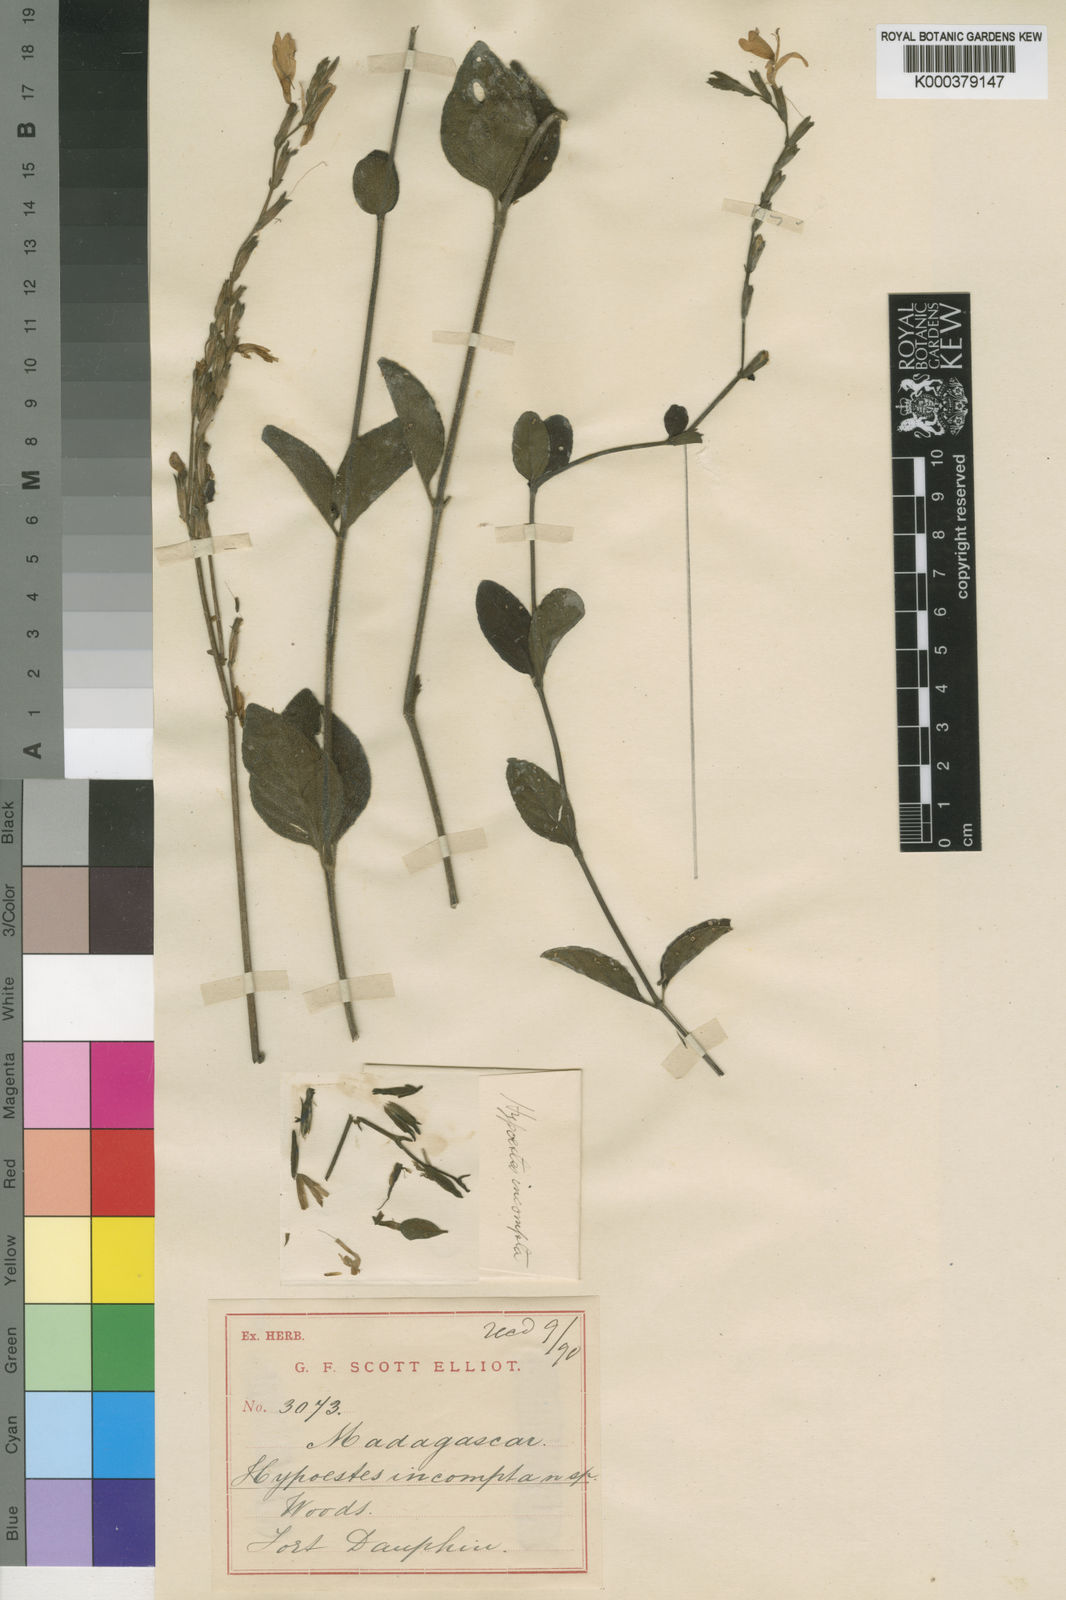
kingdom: Plantae
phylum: Tracheophyta
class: Magnoliopsida
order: Lamiales
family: Acanthaceae
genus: Hypoestes
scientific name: Hypoestes incompta
